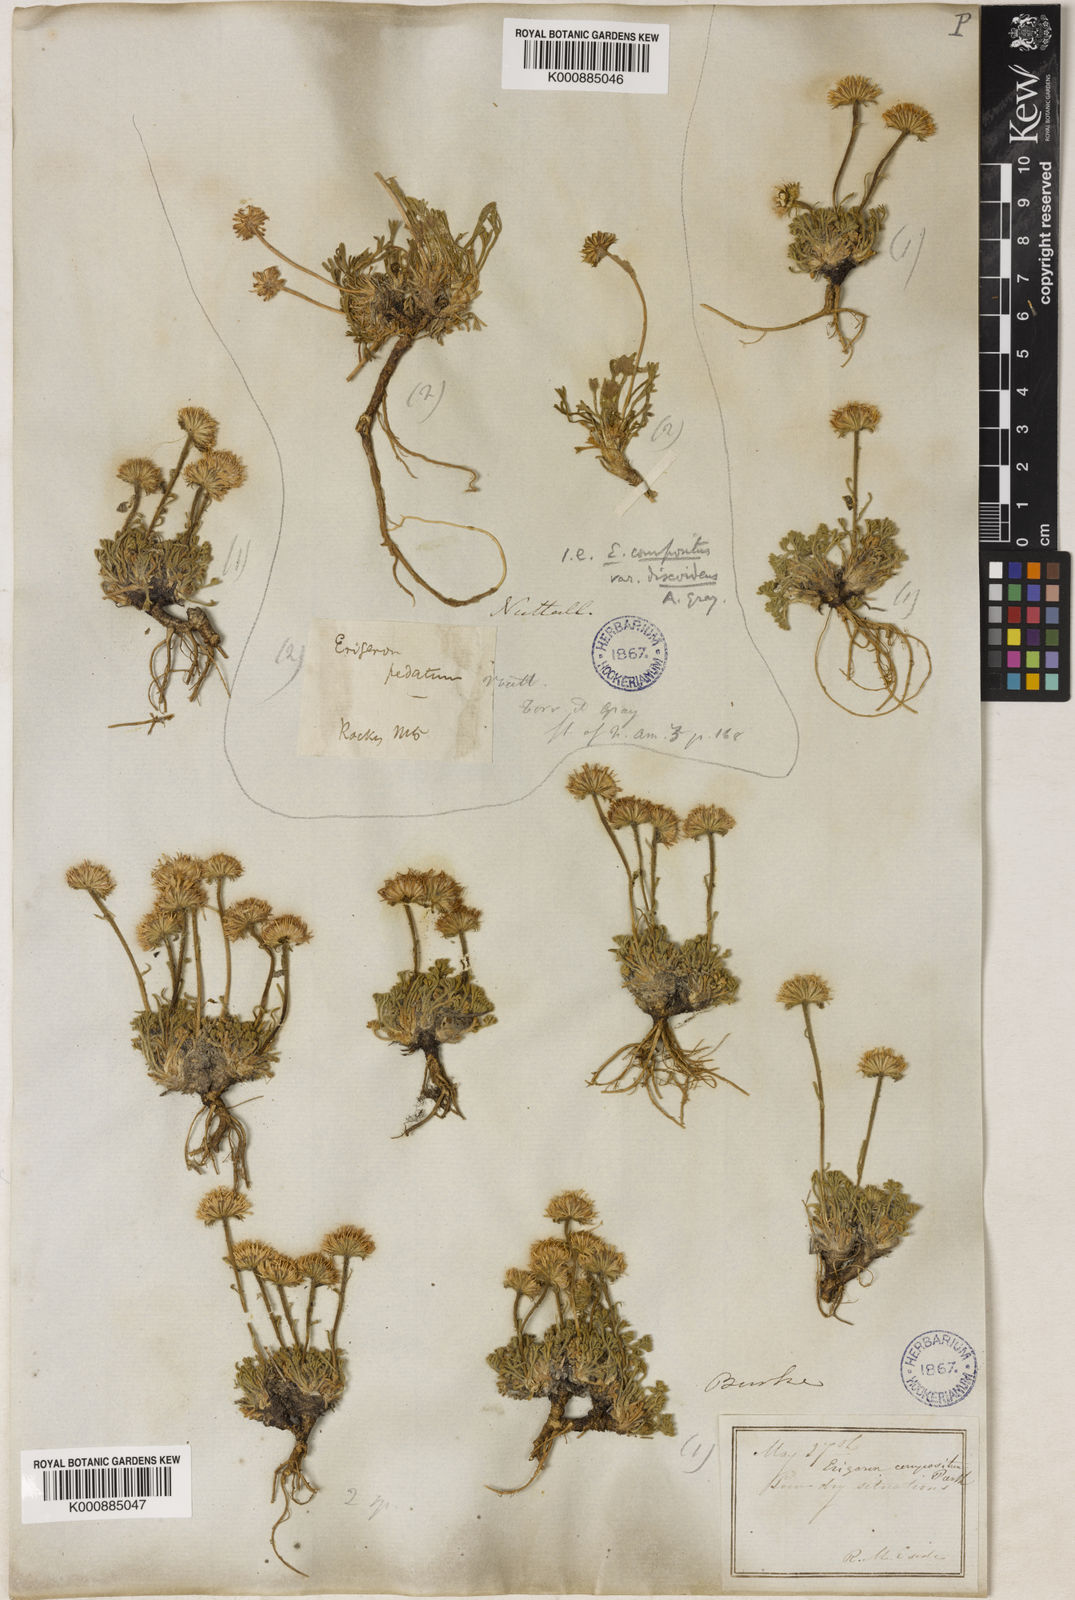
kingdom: Plantae
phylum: Tracheophyta
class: Magnoliopsida
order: Asterales
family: Asteraceae
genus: Erigeron
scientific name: Erigeron compositus
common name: Dwarf mountain fleabane
